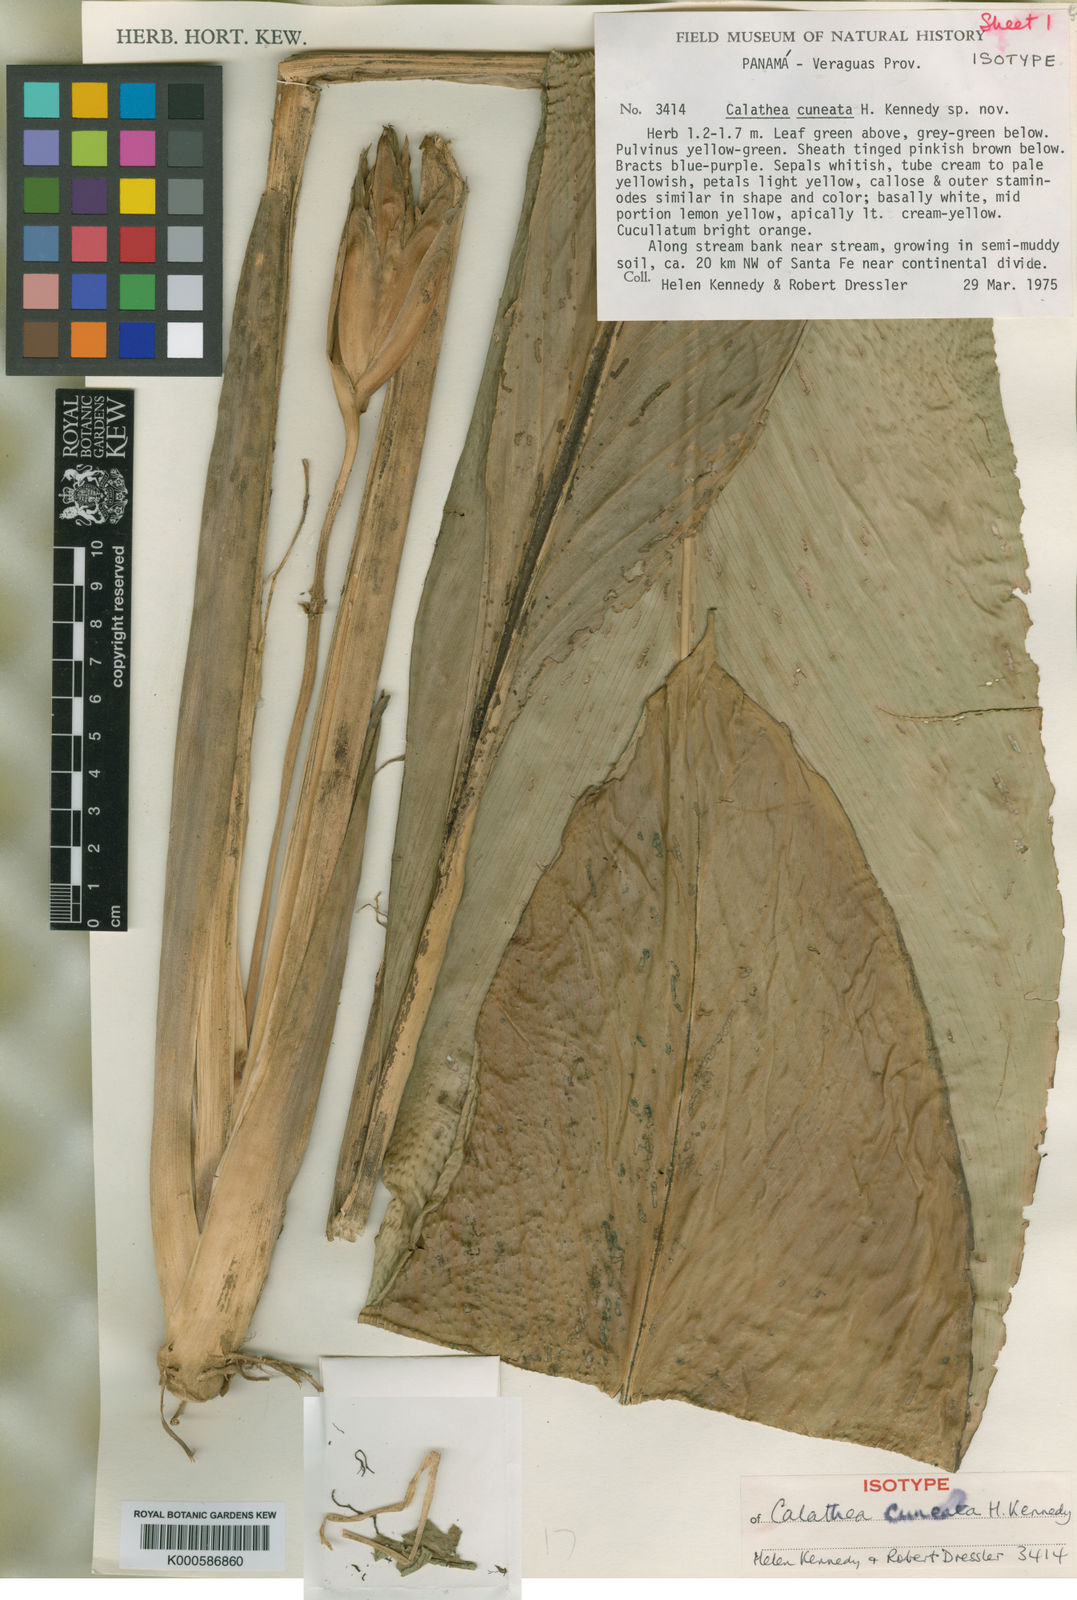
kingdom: Plantae
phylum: Tracheophyta
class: Liliopsida
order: Zingiberales
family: Marantaceae
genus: Goeppertia
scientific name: Goeppertia cuneata
